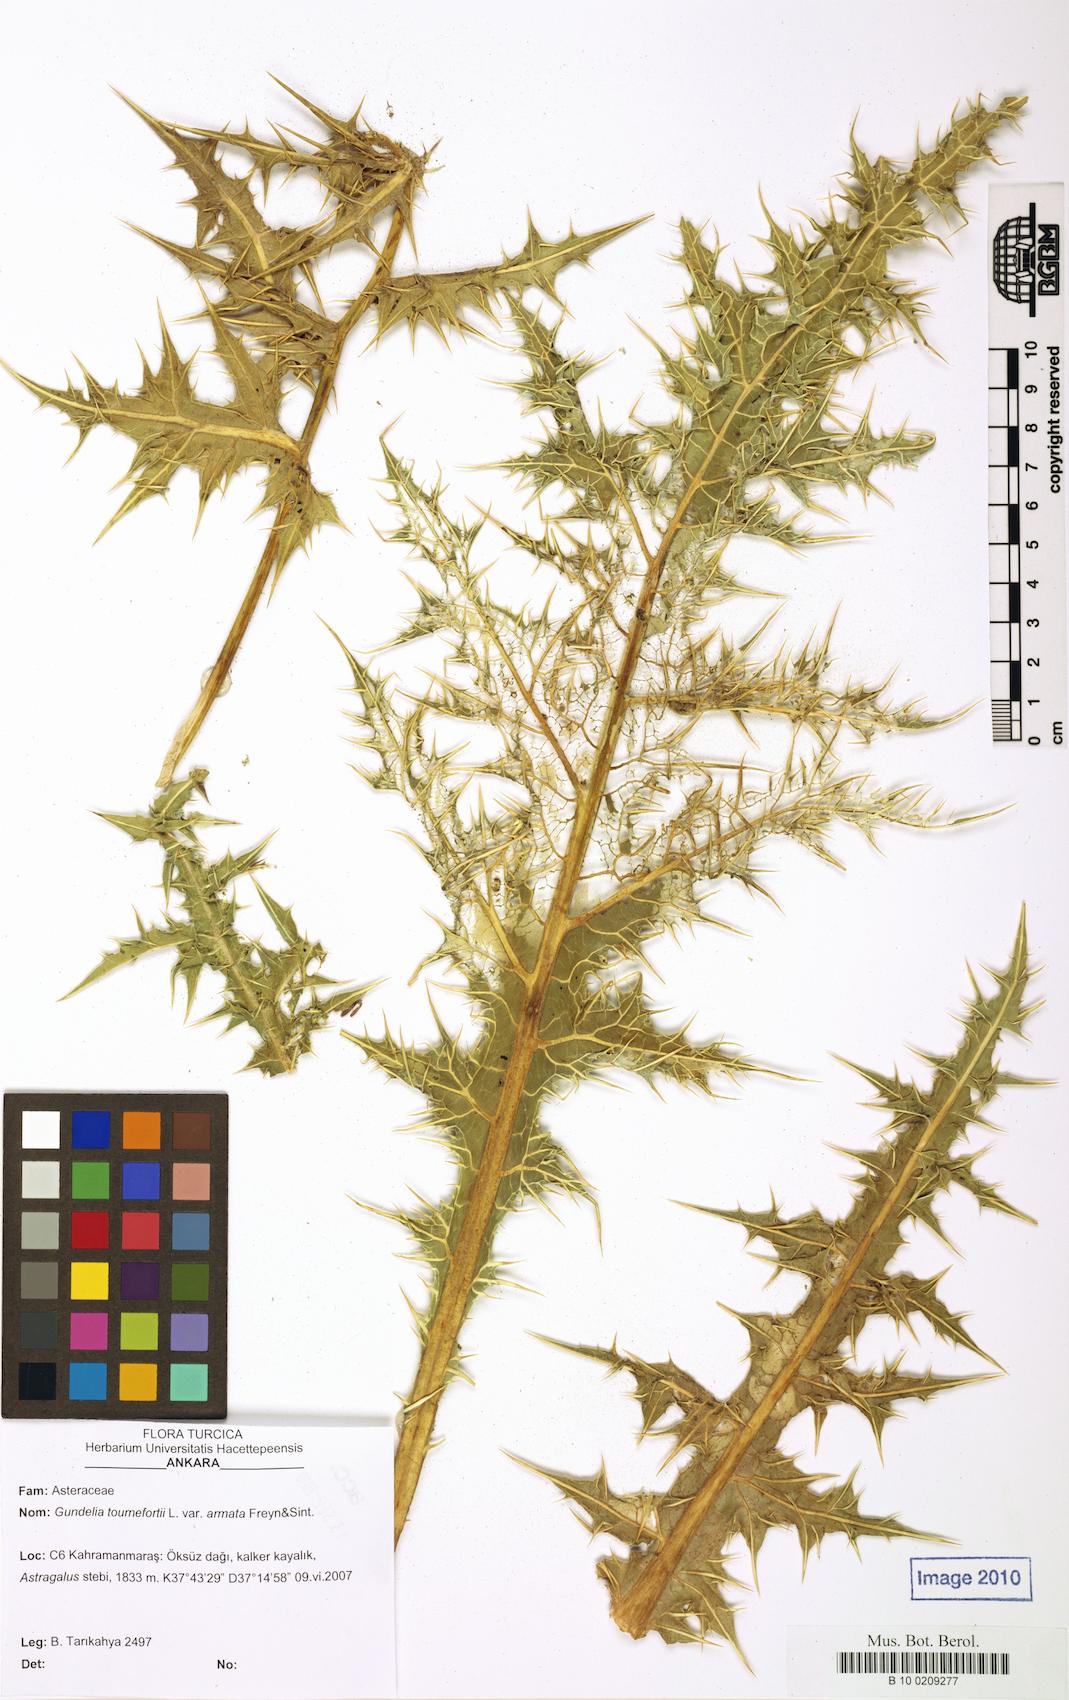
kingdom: Plantae
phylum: Tracheophyta
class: Magnoliopsida
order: Asterales
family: Asteraceae
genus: Gundelia
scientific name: Gundelia dersim
